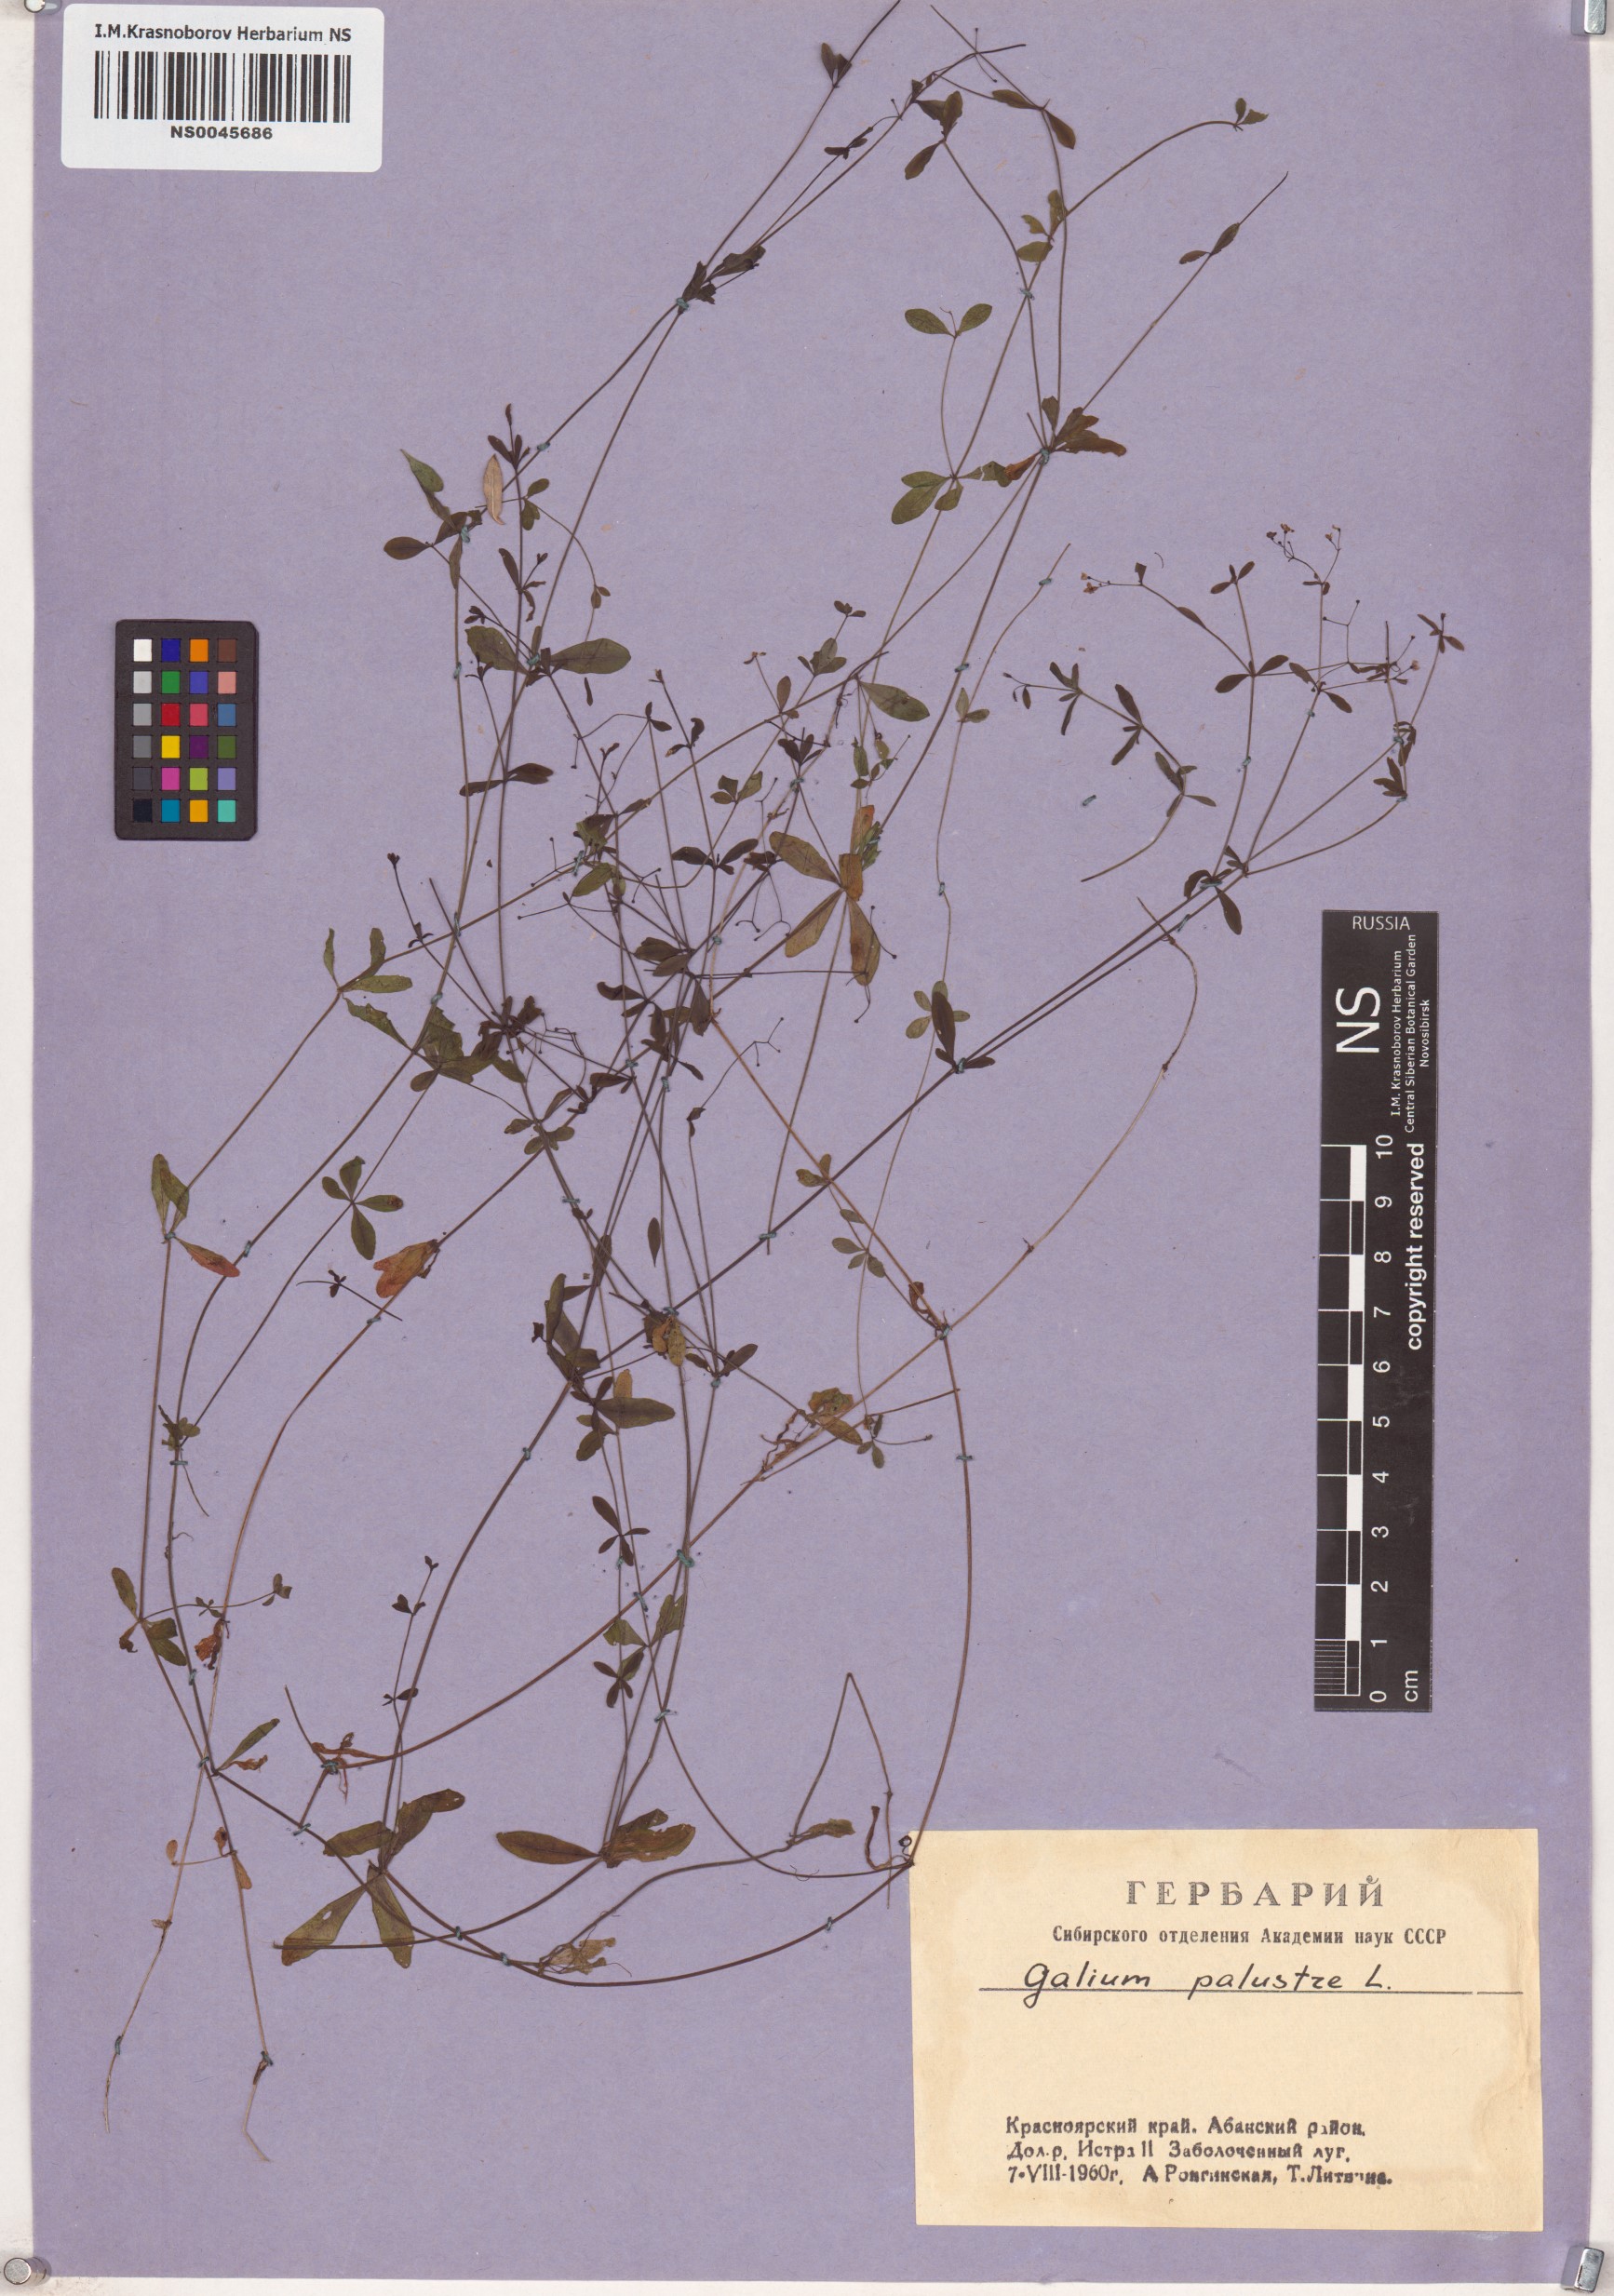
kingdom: Plantae
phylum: Tracheophyta
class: Magnoliopsida
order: Gentianales
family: Rubiaceae
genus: Galium
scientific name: Galium palustre
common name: Common marsh-bedstraw
